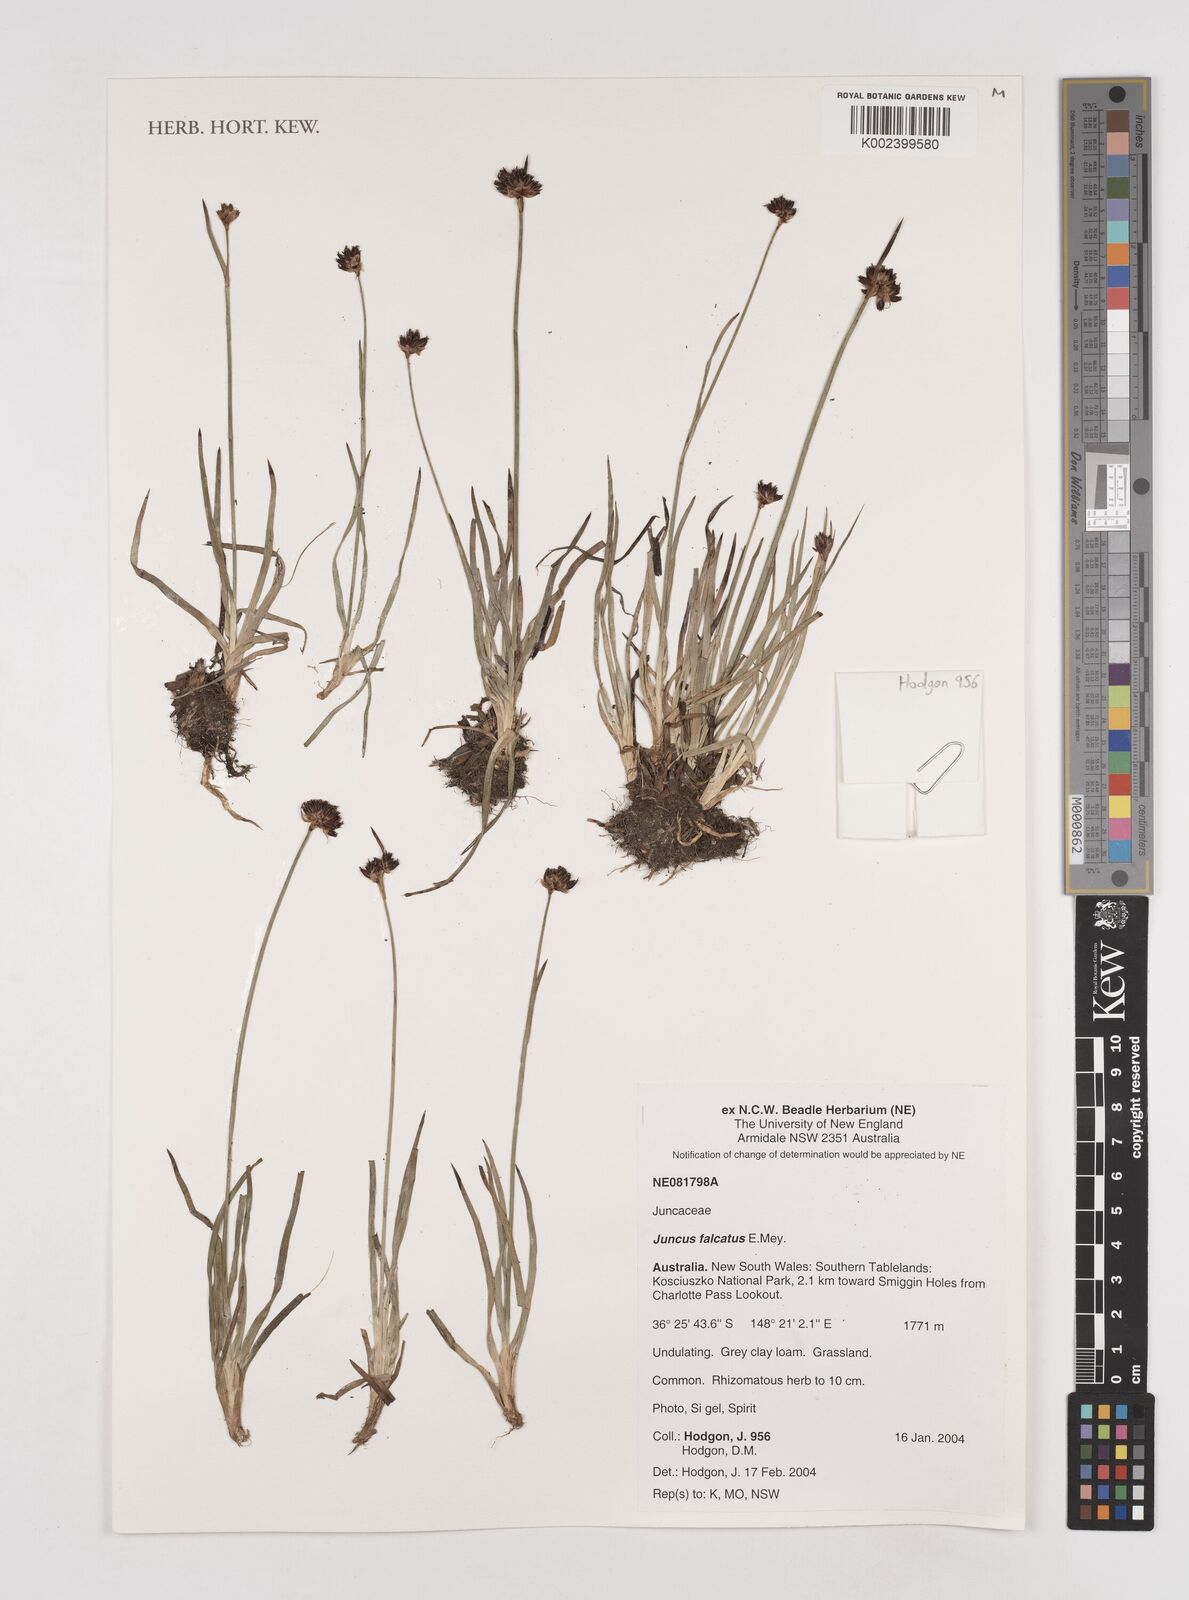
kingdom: Plantae
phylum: Tracheophyta
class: Liliopsida
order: Poales
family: Juncaceae
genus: Juncus
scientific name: Juncus falcatus
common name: Sickle-leaf rush
